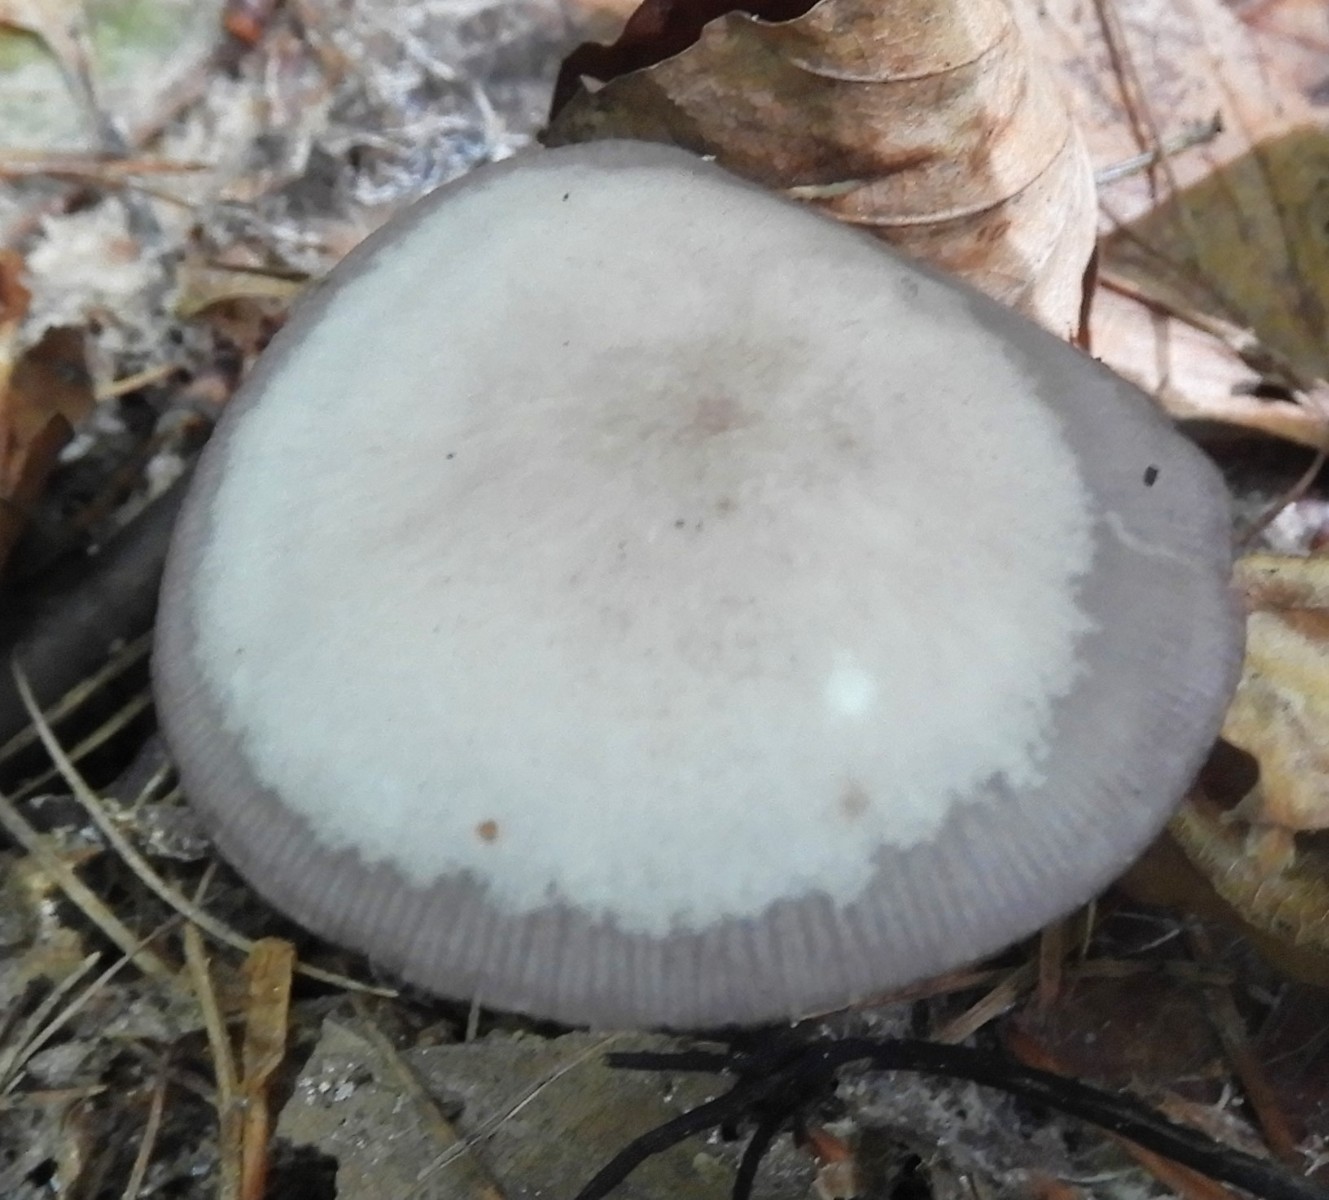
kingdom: Fungi
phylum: Basidiomycota
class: Agaricomycetes
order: Agaricales
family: Mycenaceae
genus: Mycena
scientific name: Mycena pelianthina
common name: mørkbladet huesvamp
